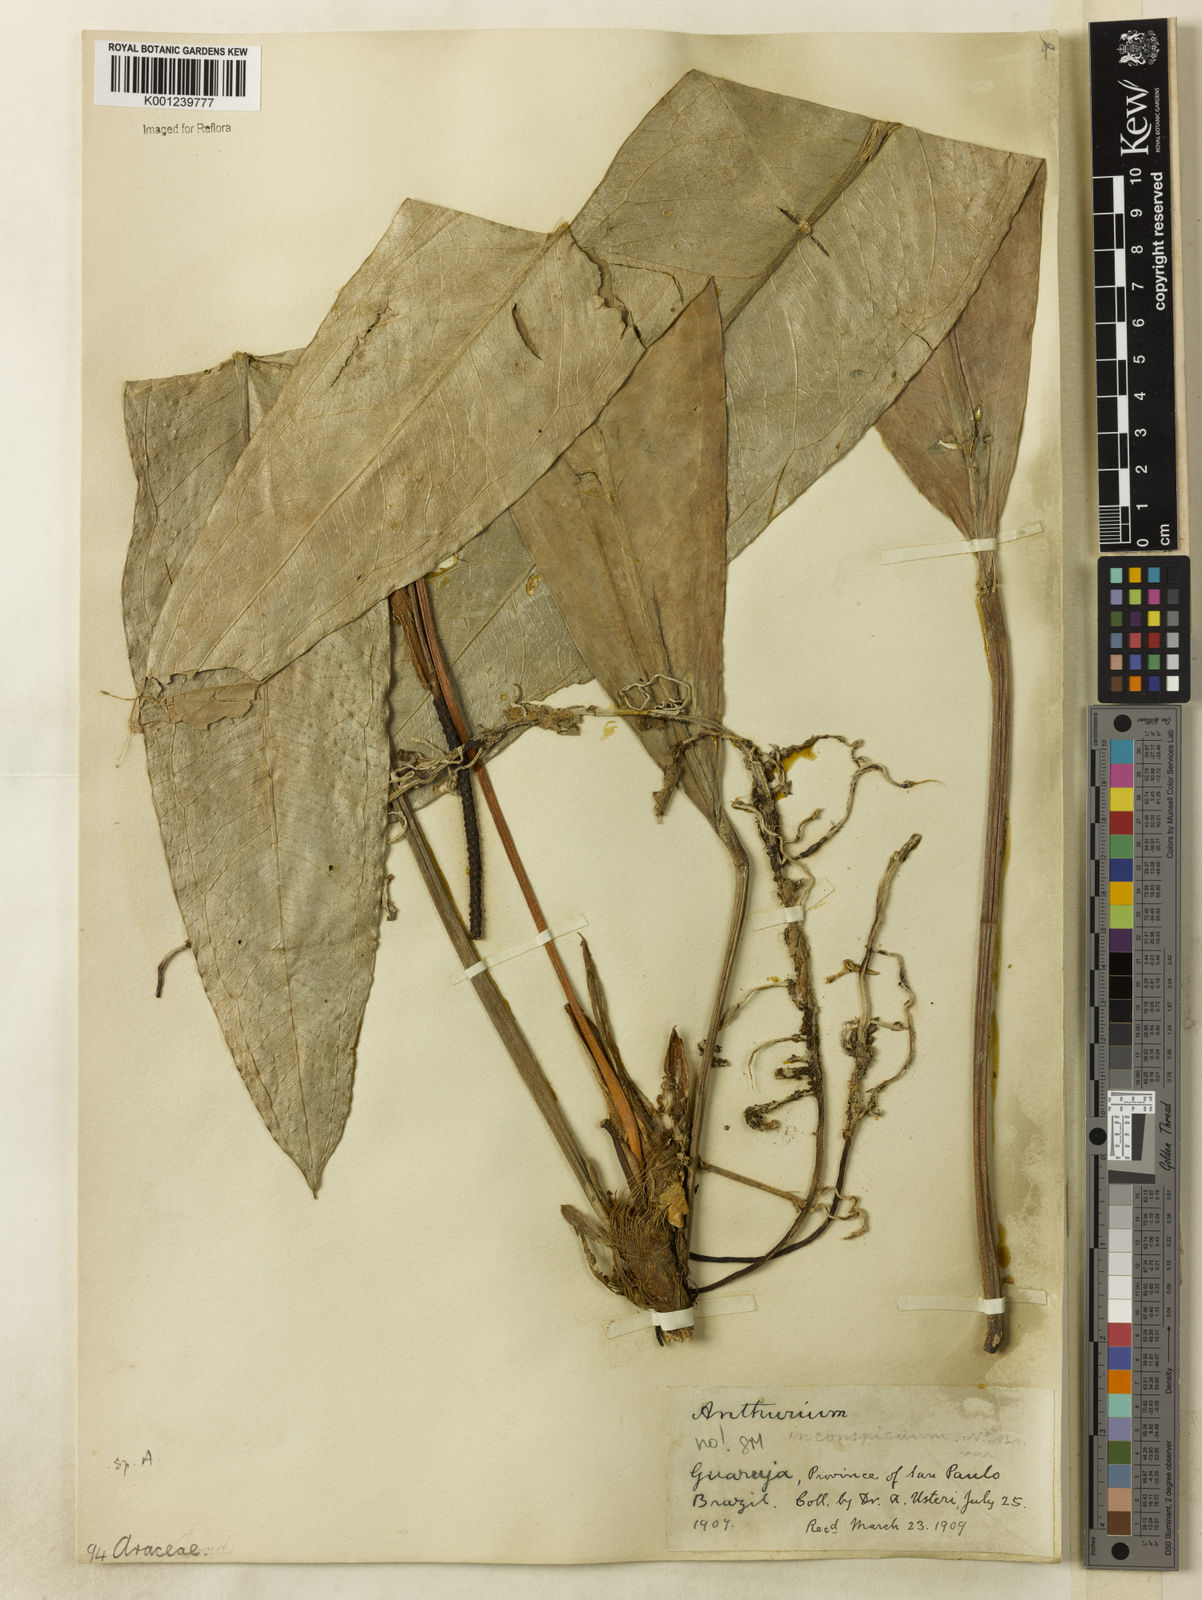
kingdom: Plantae
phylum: Tracheophyta
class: Liliopsida
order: Alismatales
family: Araceae
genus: Anthurium
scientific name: Anthurium
